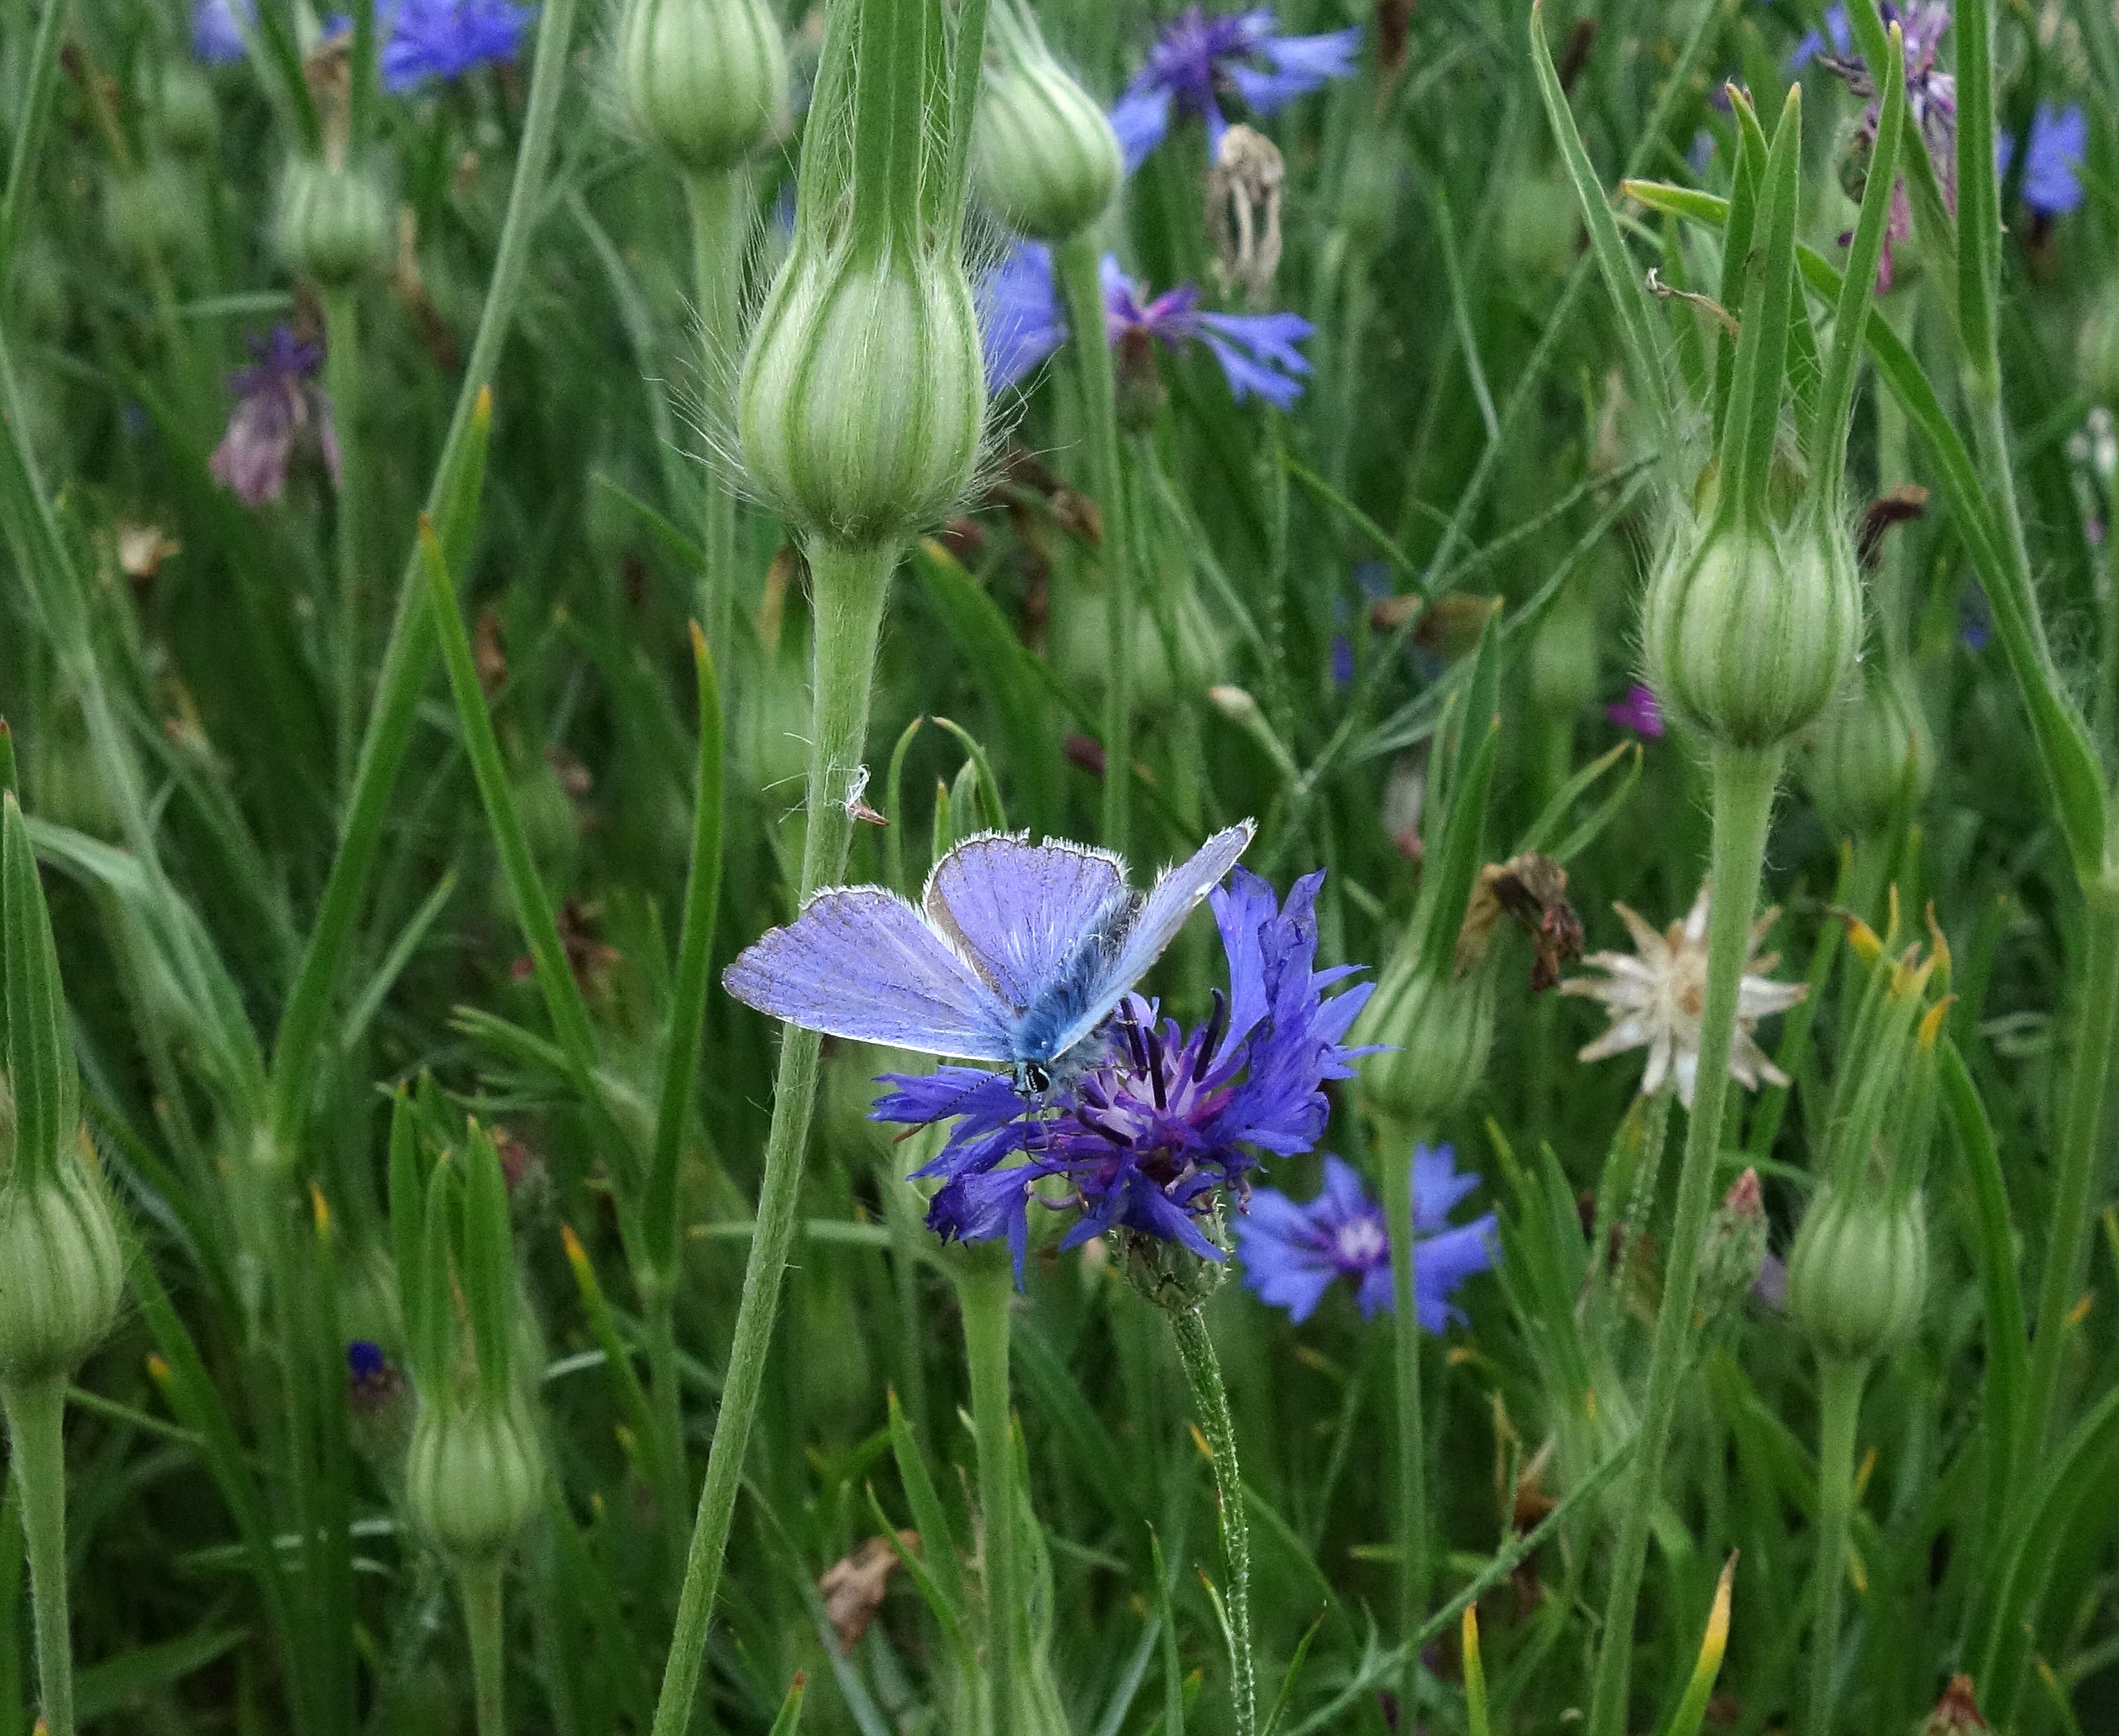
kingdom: Animalia
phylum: Arthropoda
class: Insecta
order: Lepidoptera
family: Lycaenidae
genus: Polyommatus
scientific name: Polyommatus icarus
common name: Almindelig blåfugl
